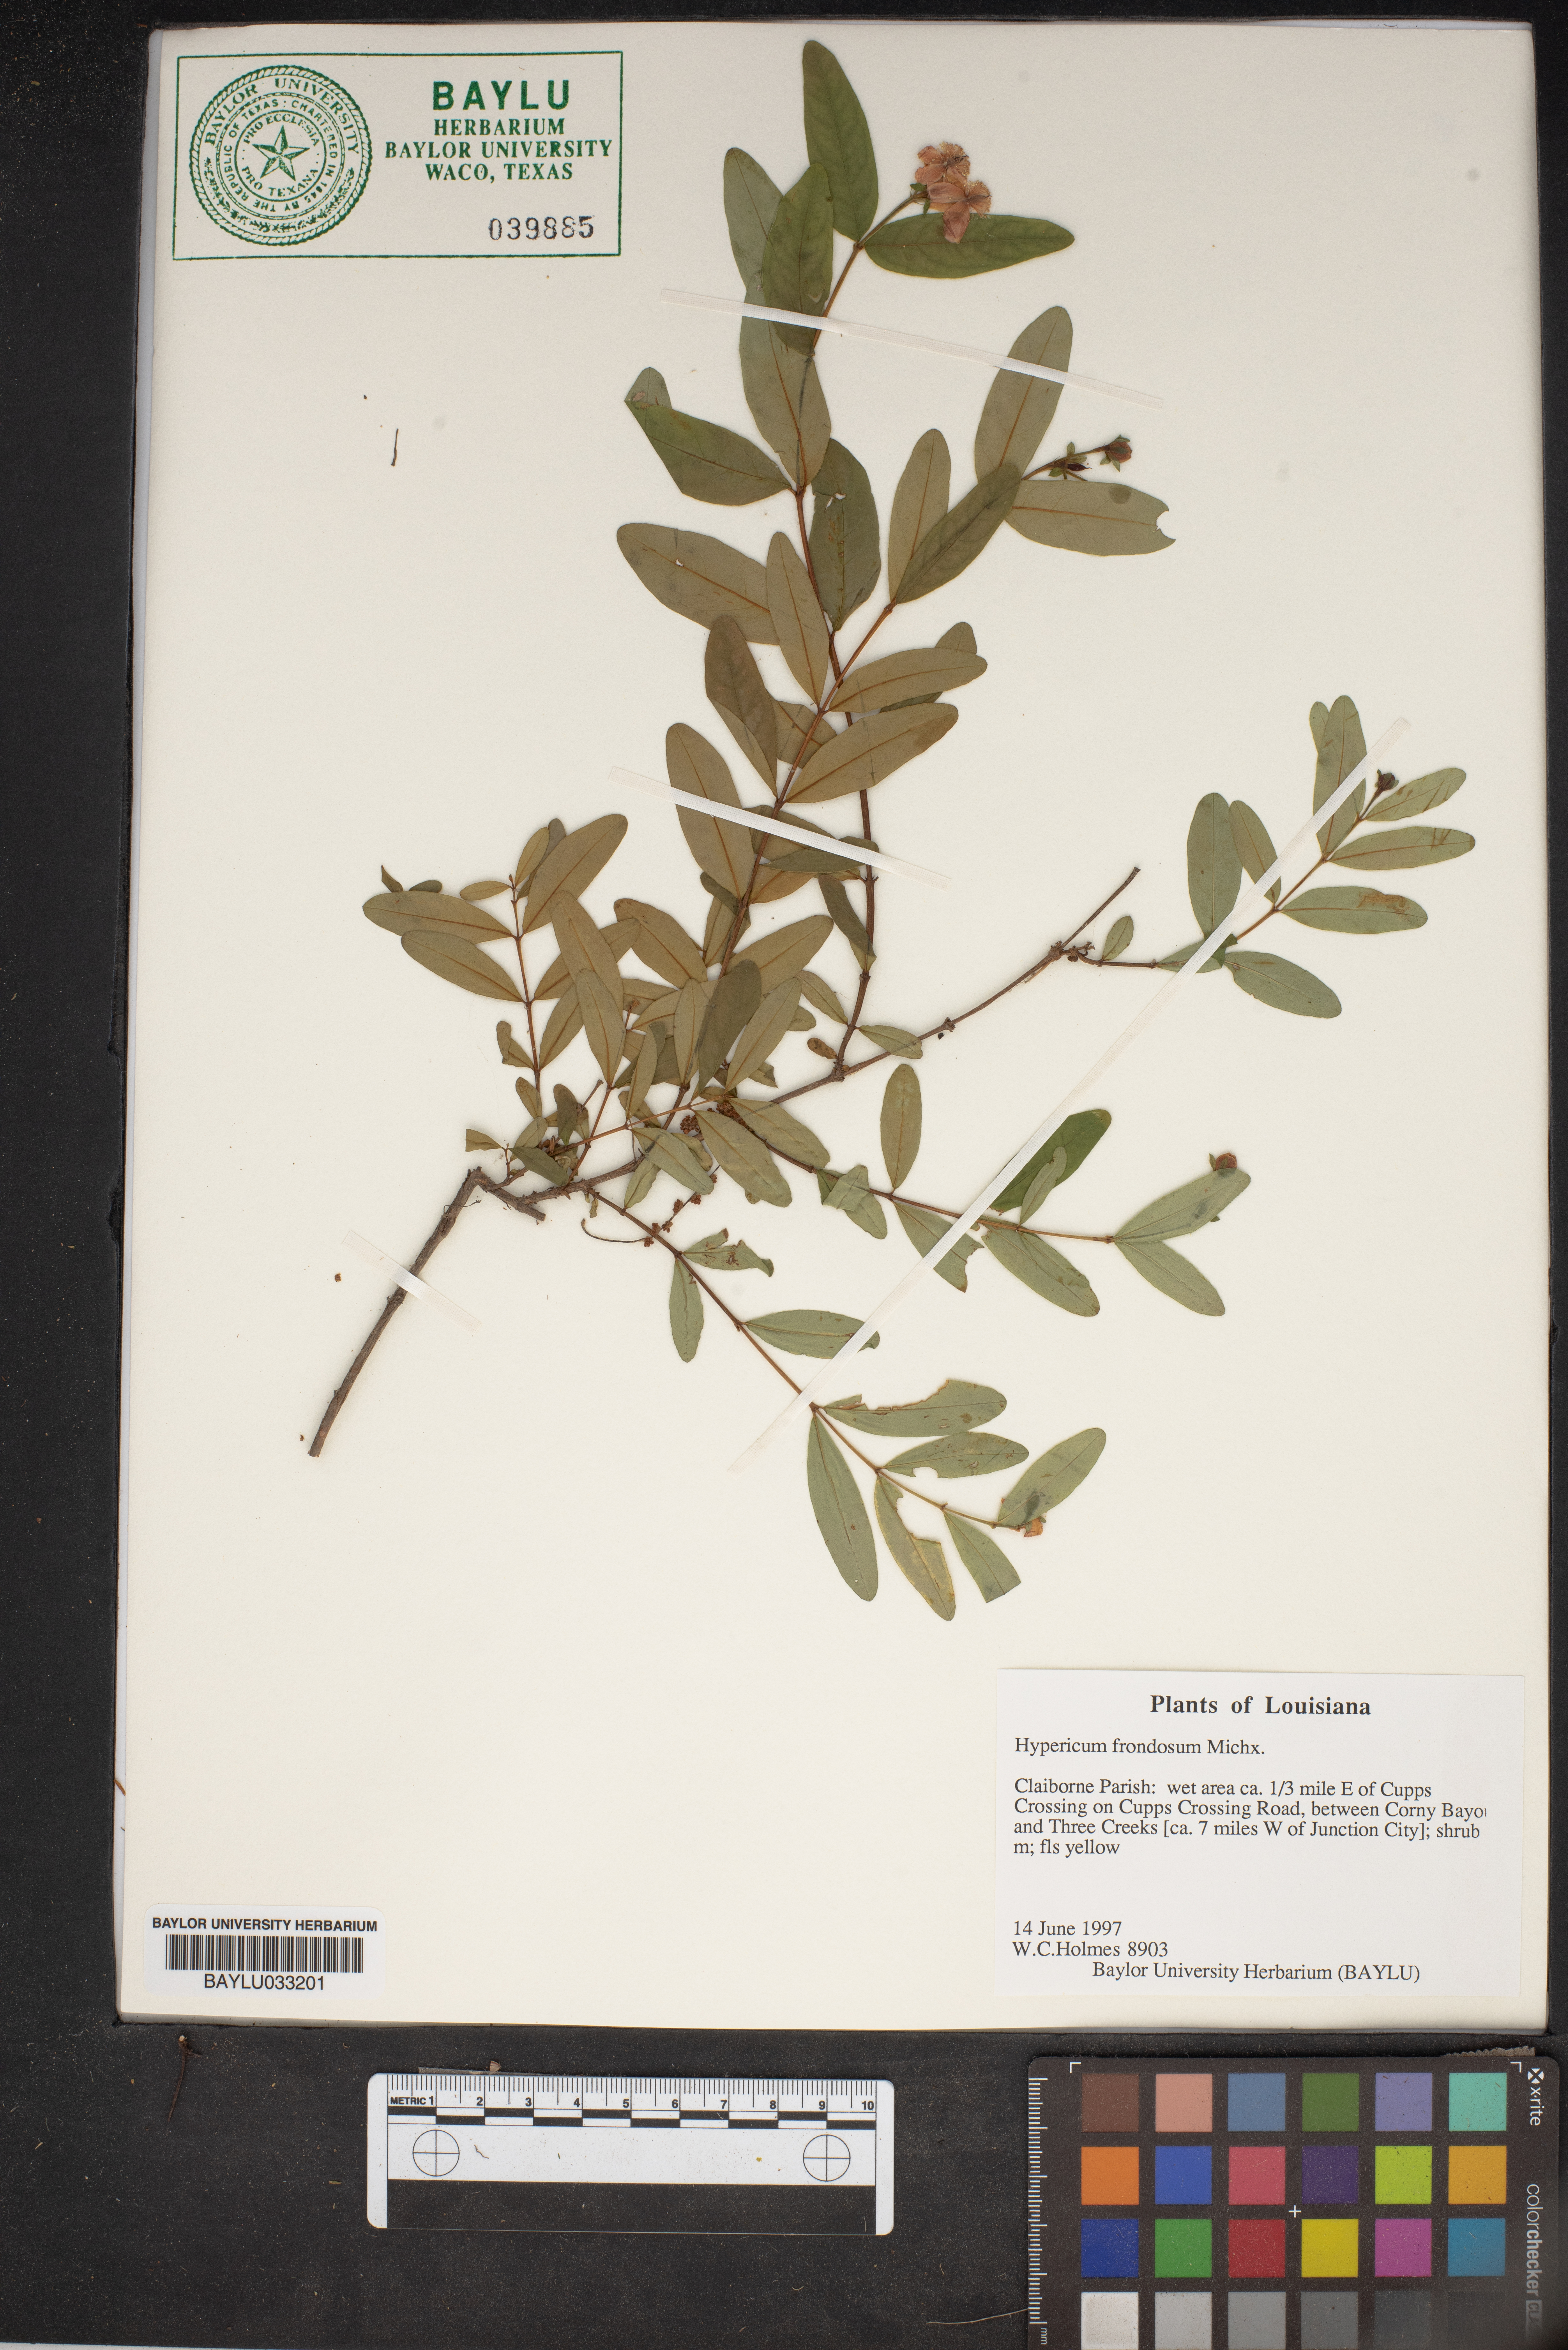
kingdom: Plantae
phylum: Tracheophyta
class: Magnoliopsida
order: Malpighiales
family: Hypericaceae
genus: Hypericum
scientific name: Hypericum frondosum
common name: Golden st. john's-wort
